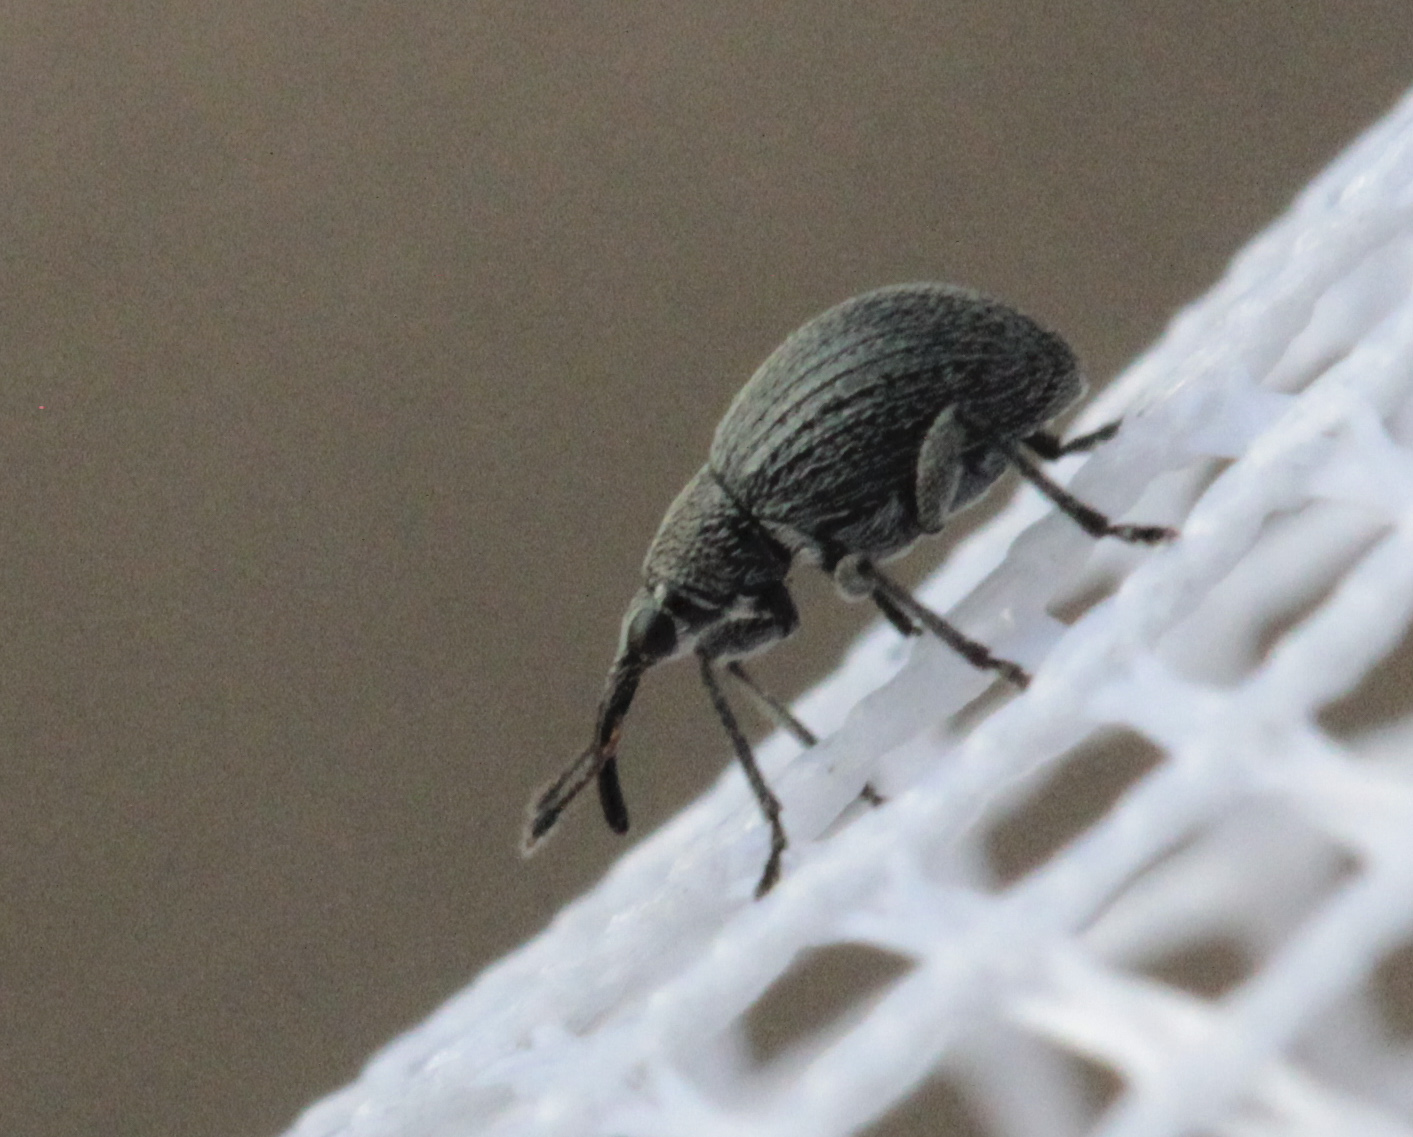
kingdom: Animalia
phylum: Arthropoda
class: Insecta
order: Coleoptera
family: Apionidae
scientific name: Apionidae
